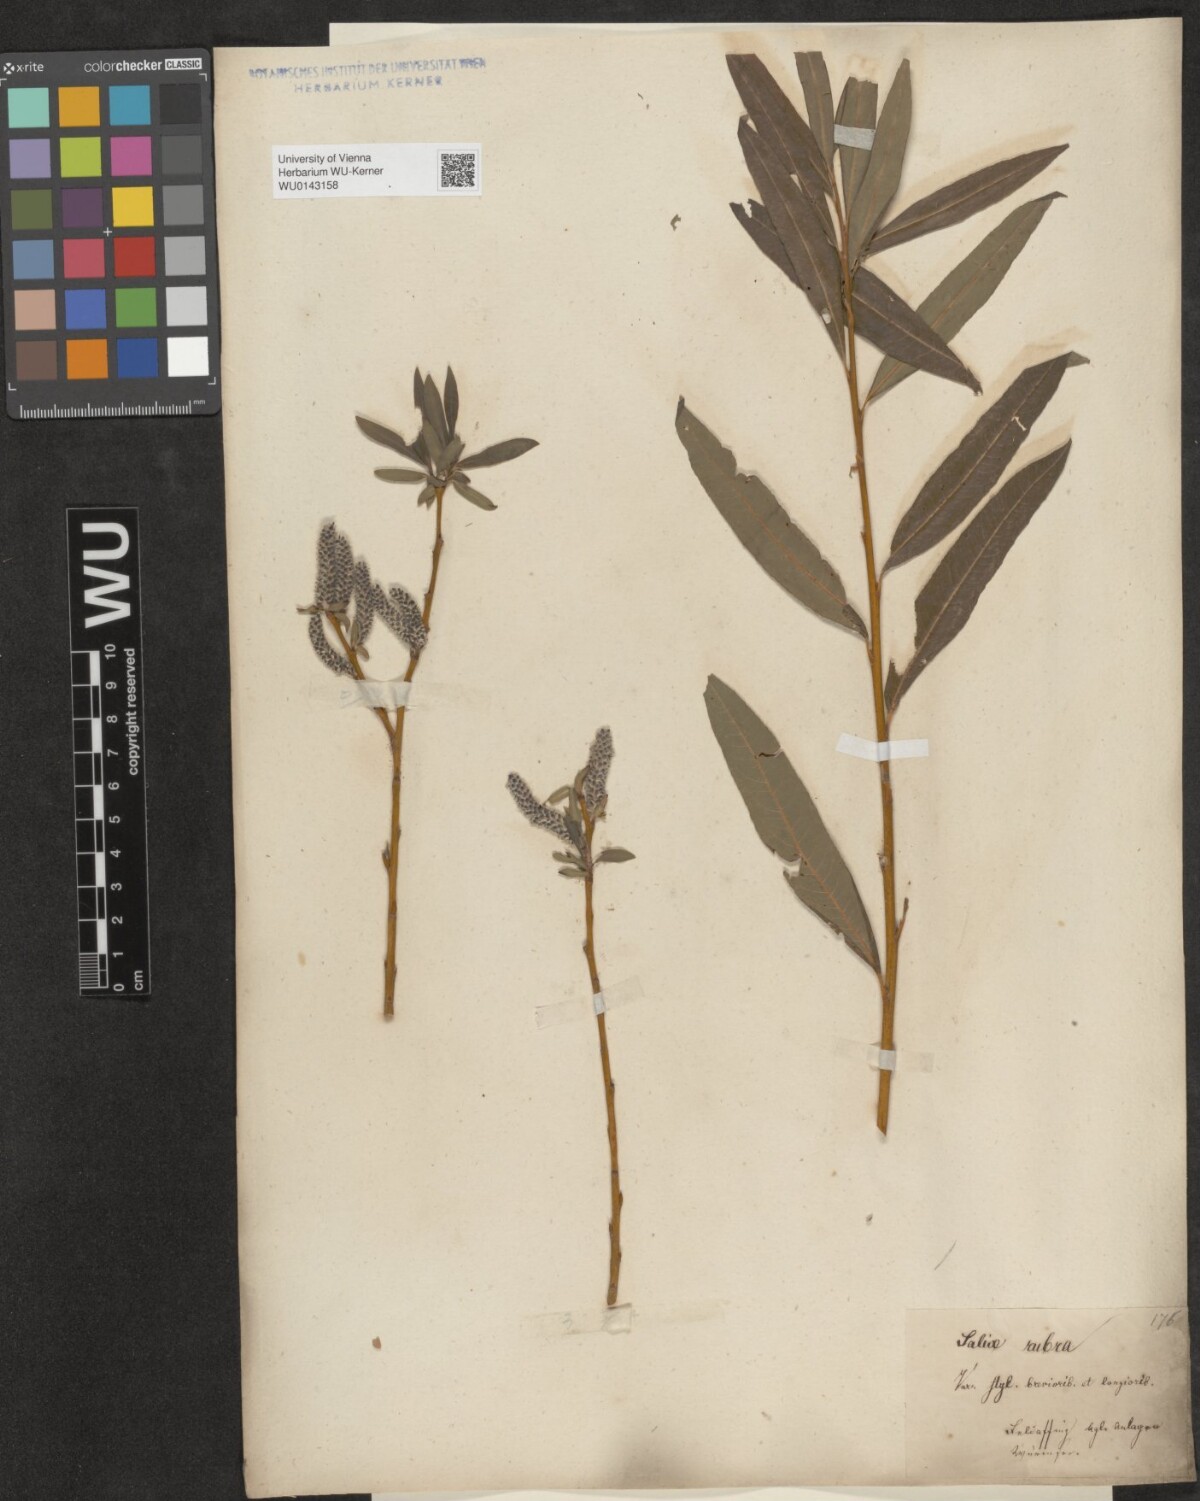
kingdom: Plantae
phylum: Tracheophyta
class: Magnoliopsida
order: Malpighiales
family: Salicaceae
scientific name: Salicaceae
